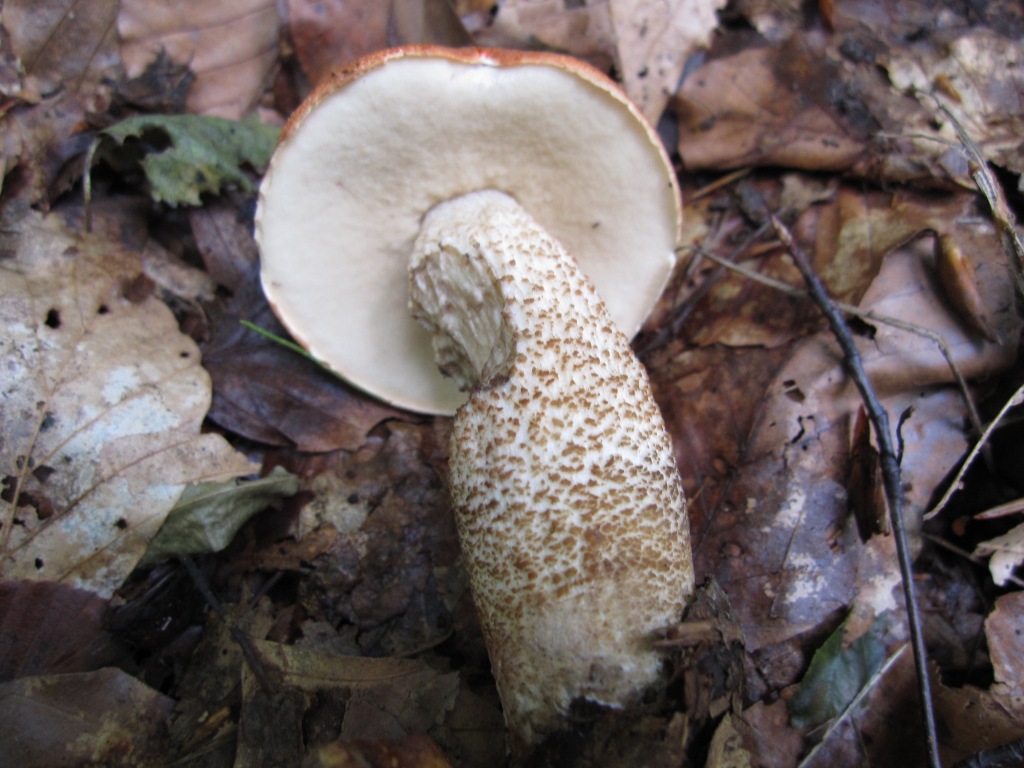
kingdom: Fungi
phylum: Basidiomycota
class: Agaricomycetes
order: Boletales
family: Boletaceae
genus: Leccinum
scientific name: Leccinum aurantiacum
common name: rustrød skælrørhat
